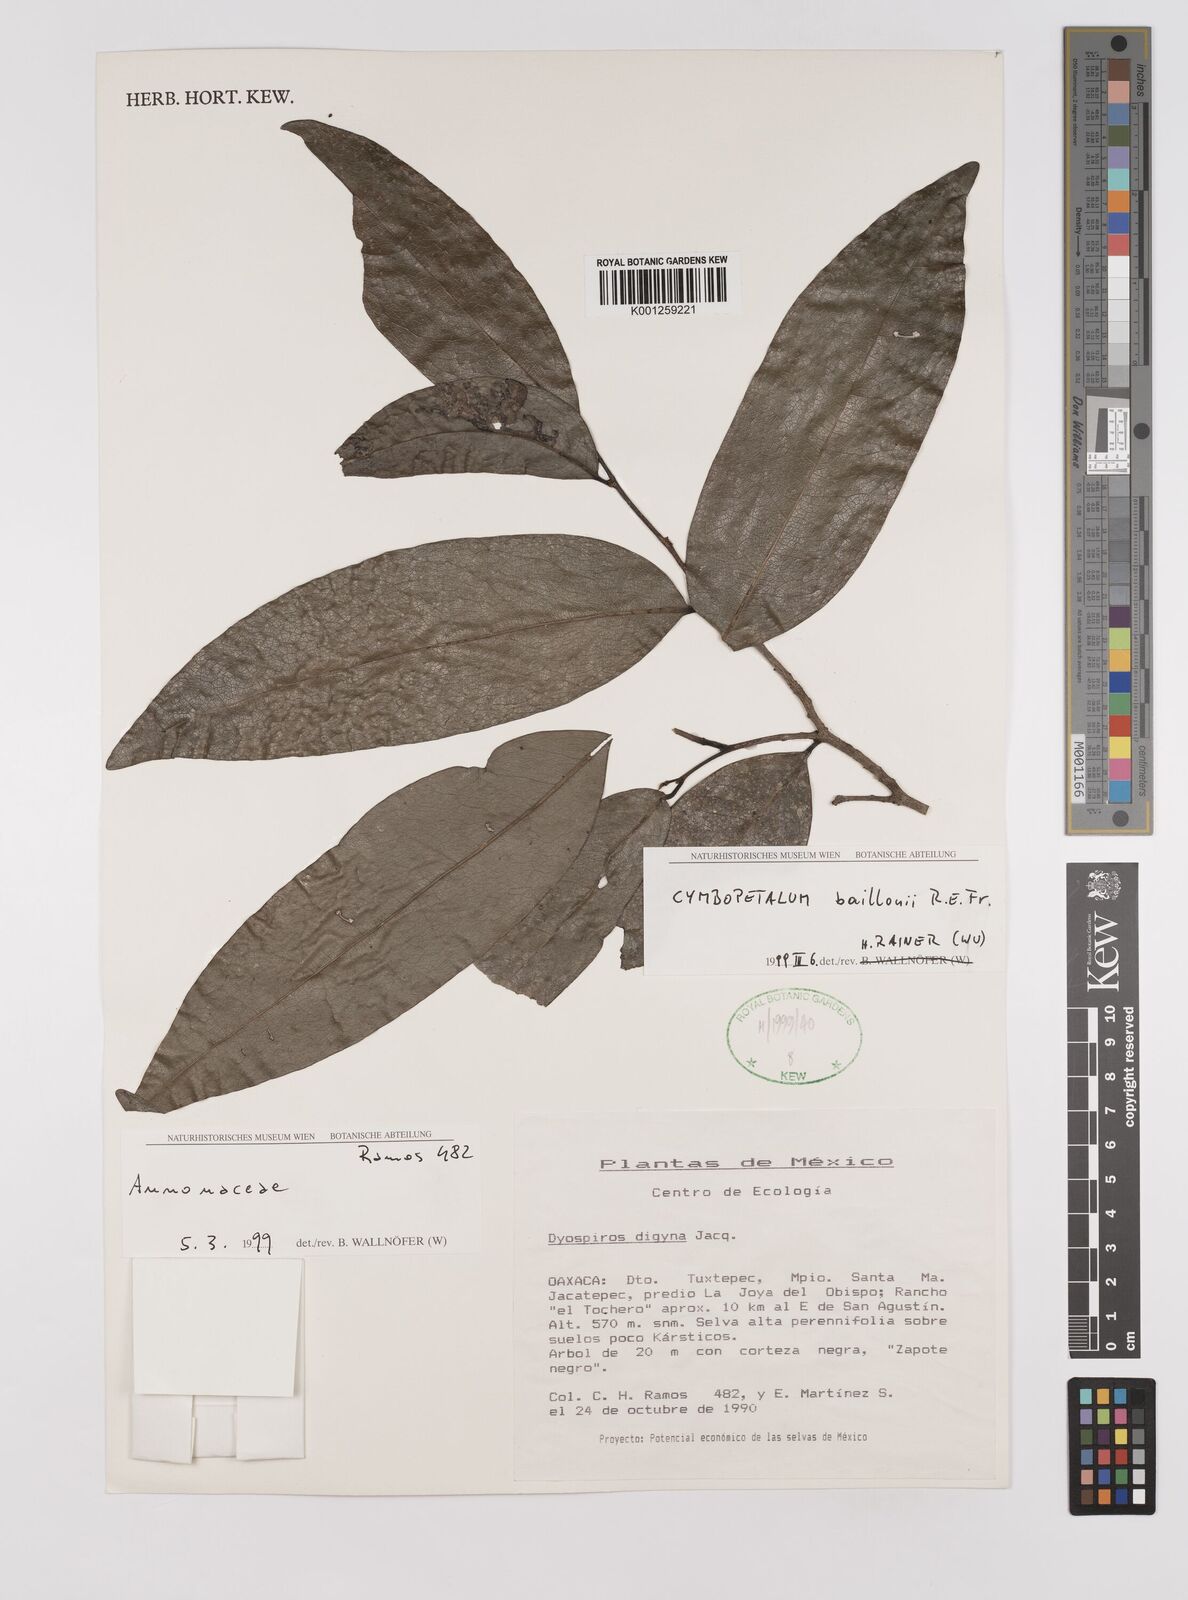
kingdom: Plantae
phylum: Tracheophyta
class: Magnoliopsida
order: Magnoliales
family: Annonaceae
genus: Cymbopetalum
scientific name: Cymbopetalum baillonii
